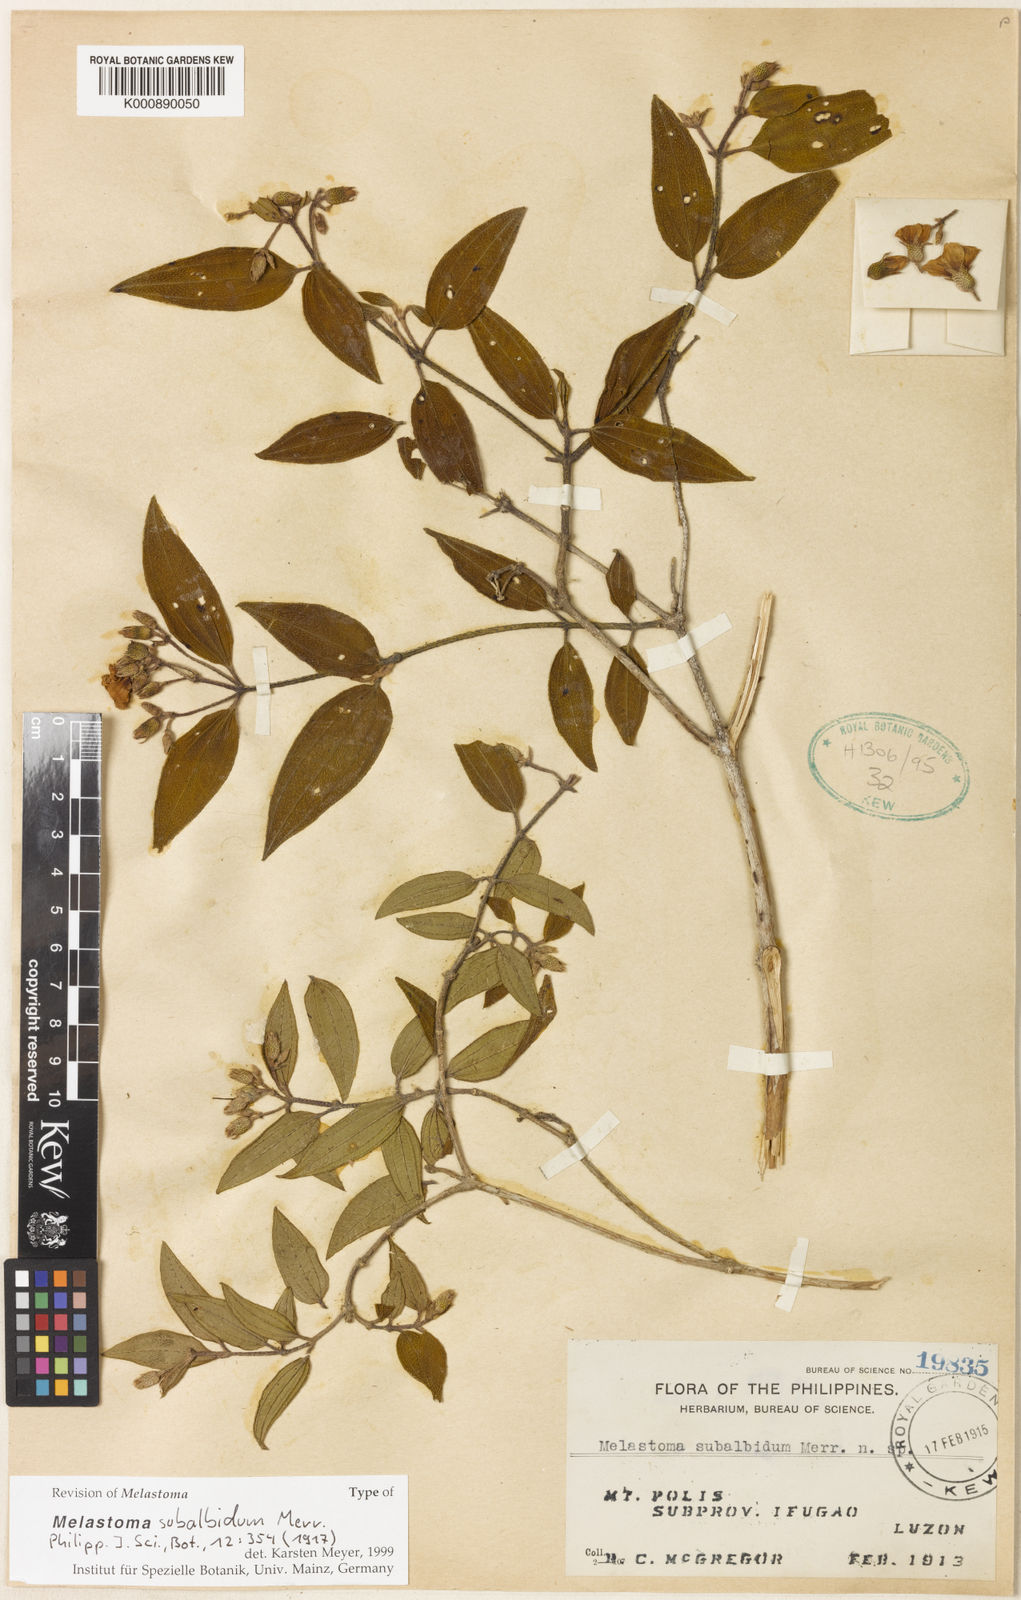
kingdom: Plantae
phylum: Tracheophyta
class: Magnoliopsida
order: Myrtales
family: Melastomataceae
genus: Melastoma
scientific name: Melastoma subalbidum
